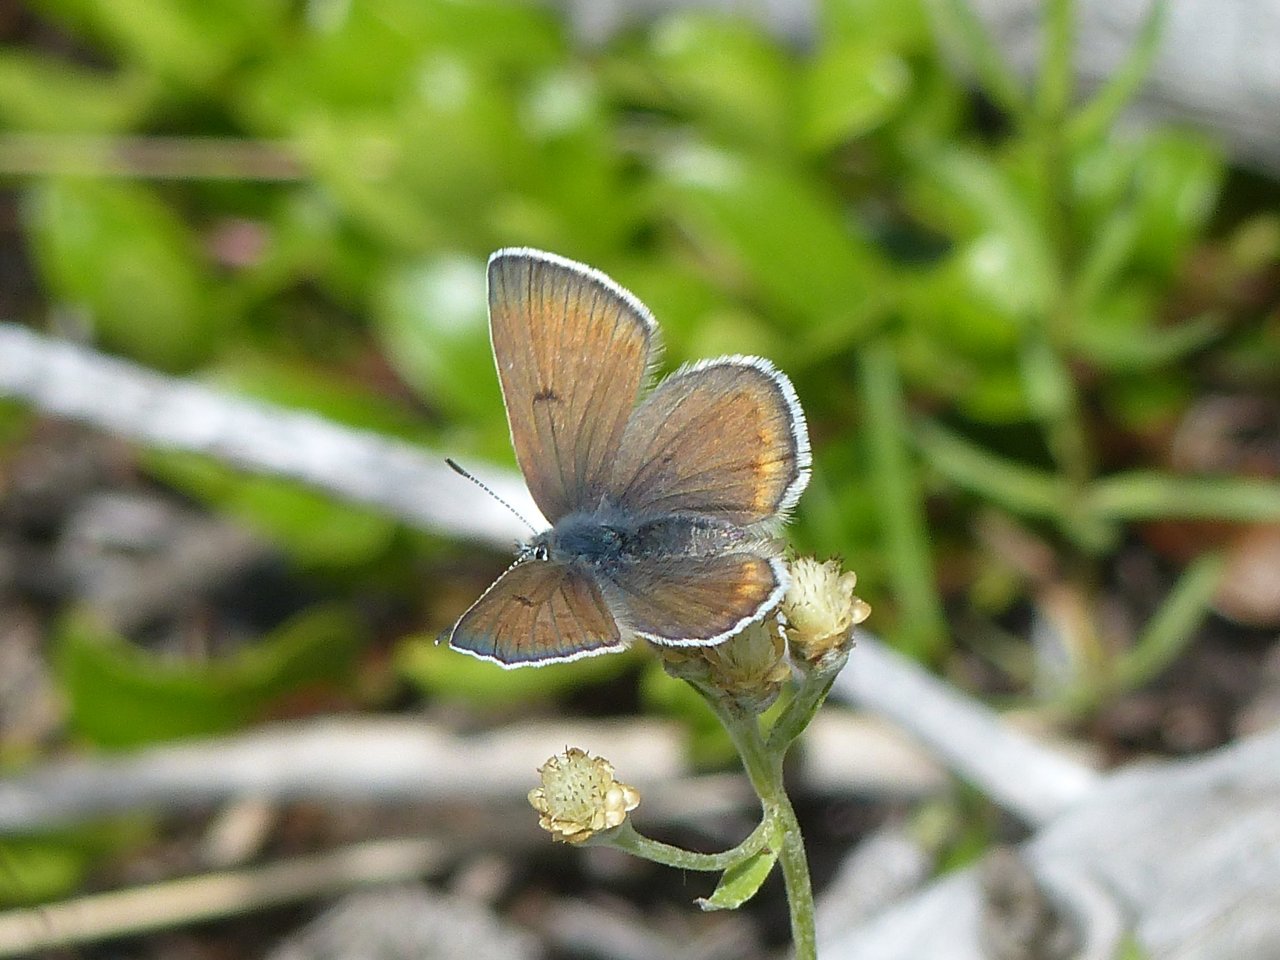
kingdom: Animalia
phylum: Arthropoda
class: Insecta
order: Lepidoptera
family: Lycaenidae
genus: Icaricia
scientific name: Icaricia icarioides
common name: Boisduval's Blue
